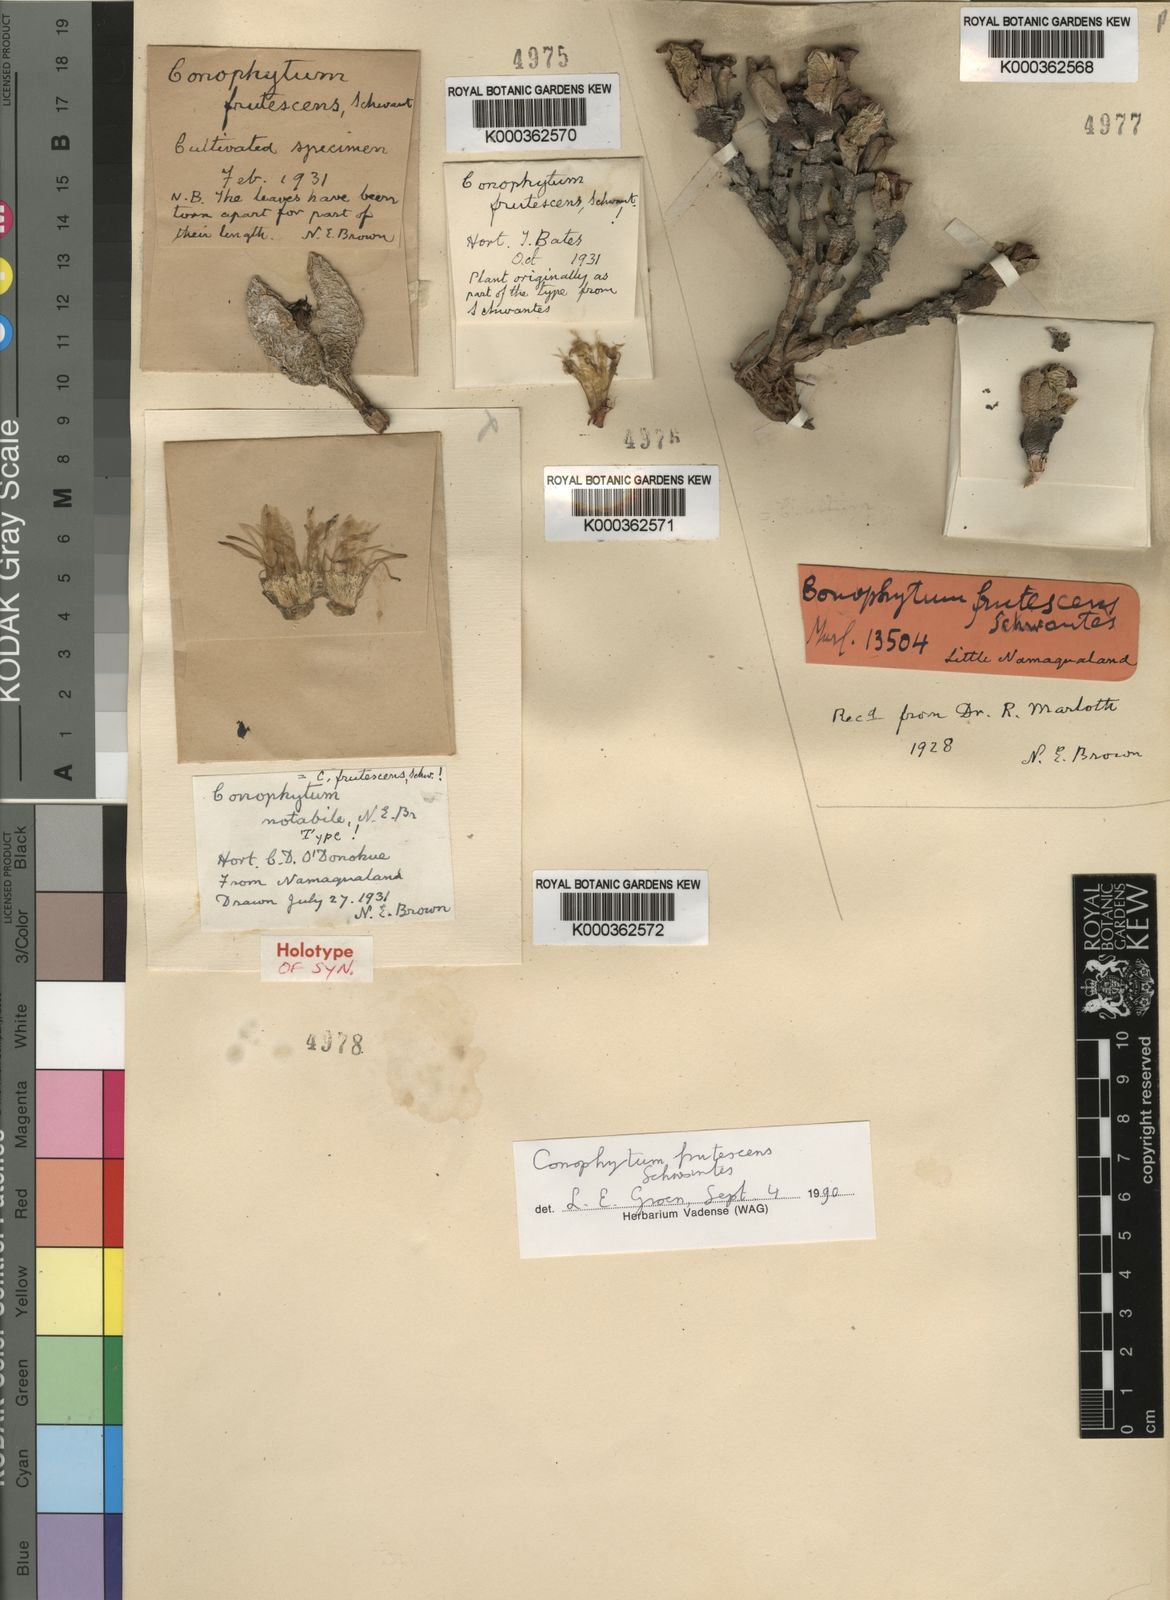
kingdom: Plantae
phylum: Tracheophyta
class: Magnoliopsida
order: Caryophyllales
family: Aizoaceae
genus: Conophytum
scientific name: Conophytum frutescens
